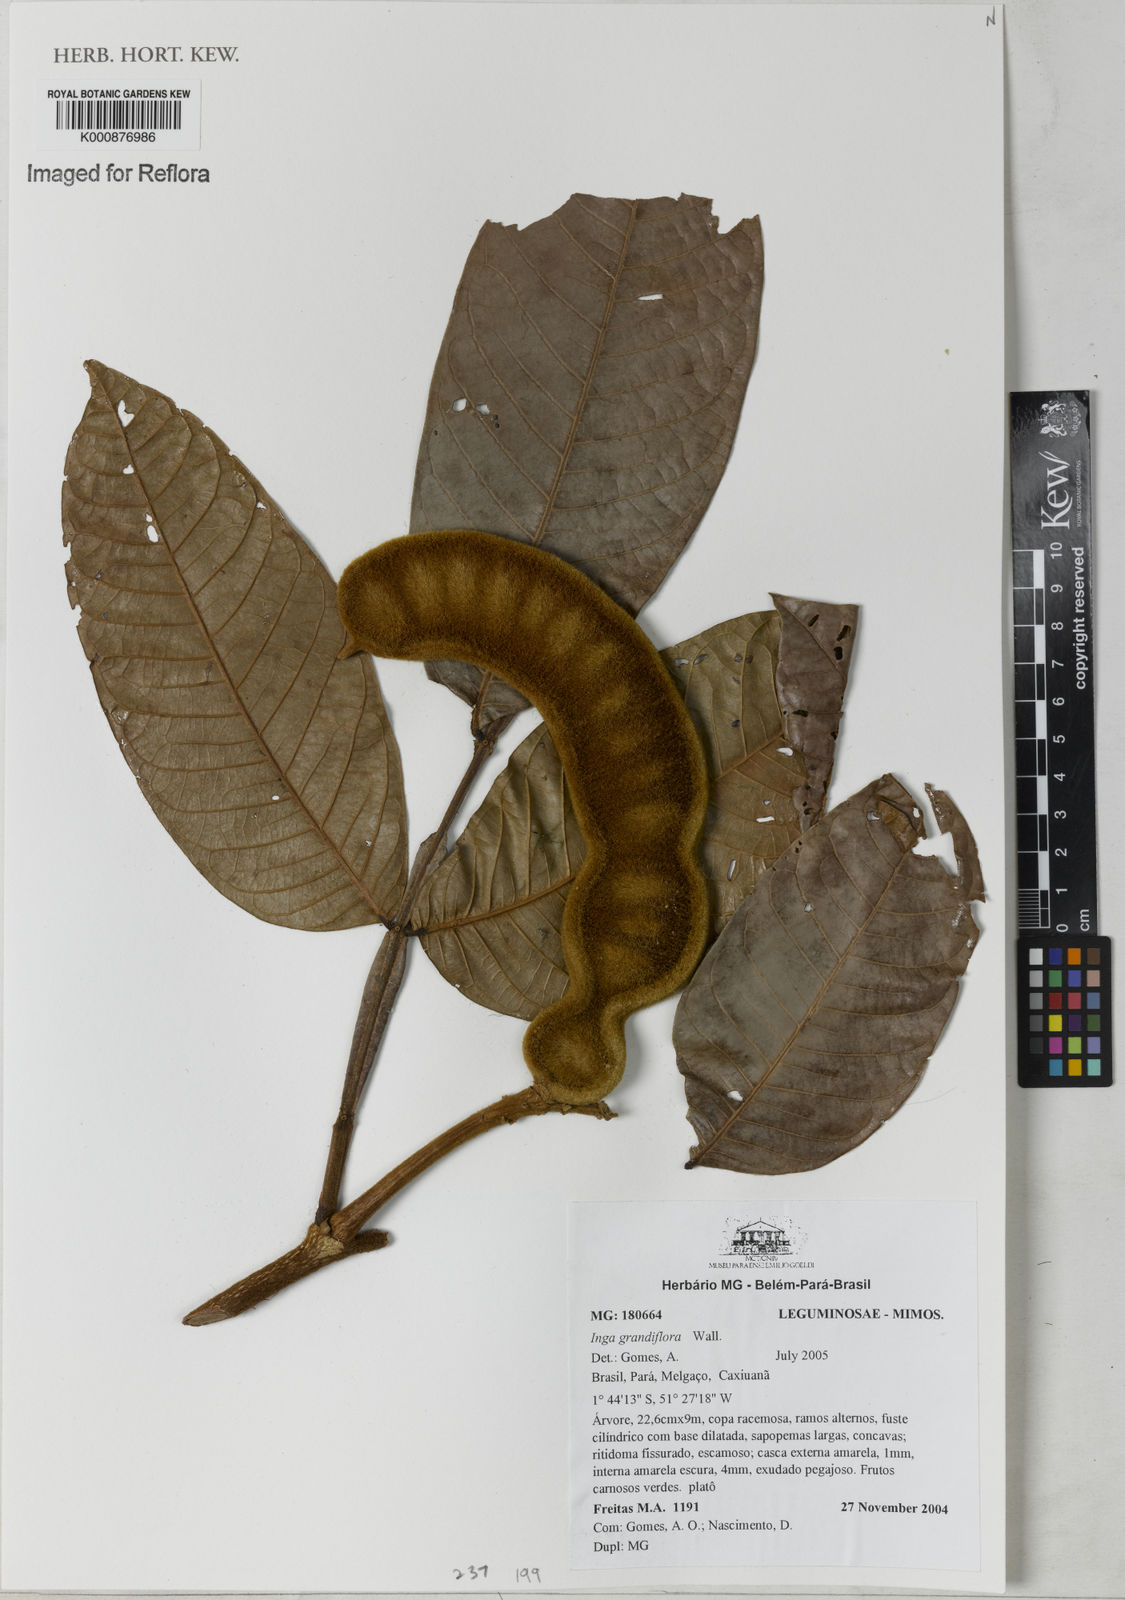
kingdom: Plantae
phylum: Tracheophyta
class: Magnoliopsida
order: Fabales
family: Fabaceae
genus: Inga
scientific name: Inga crassiflora
